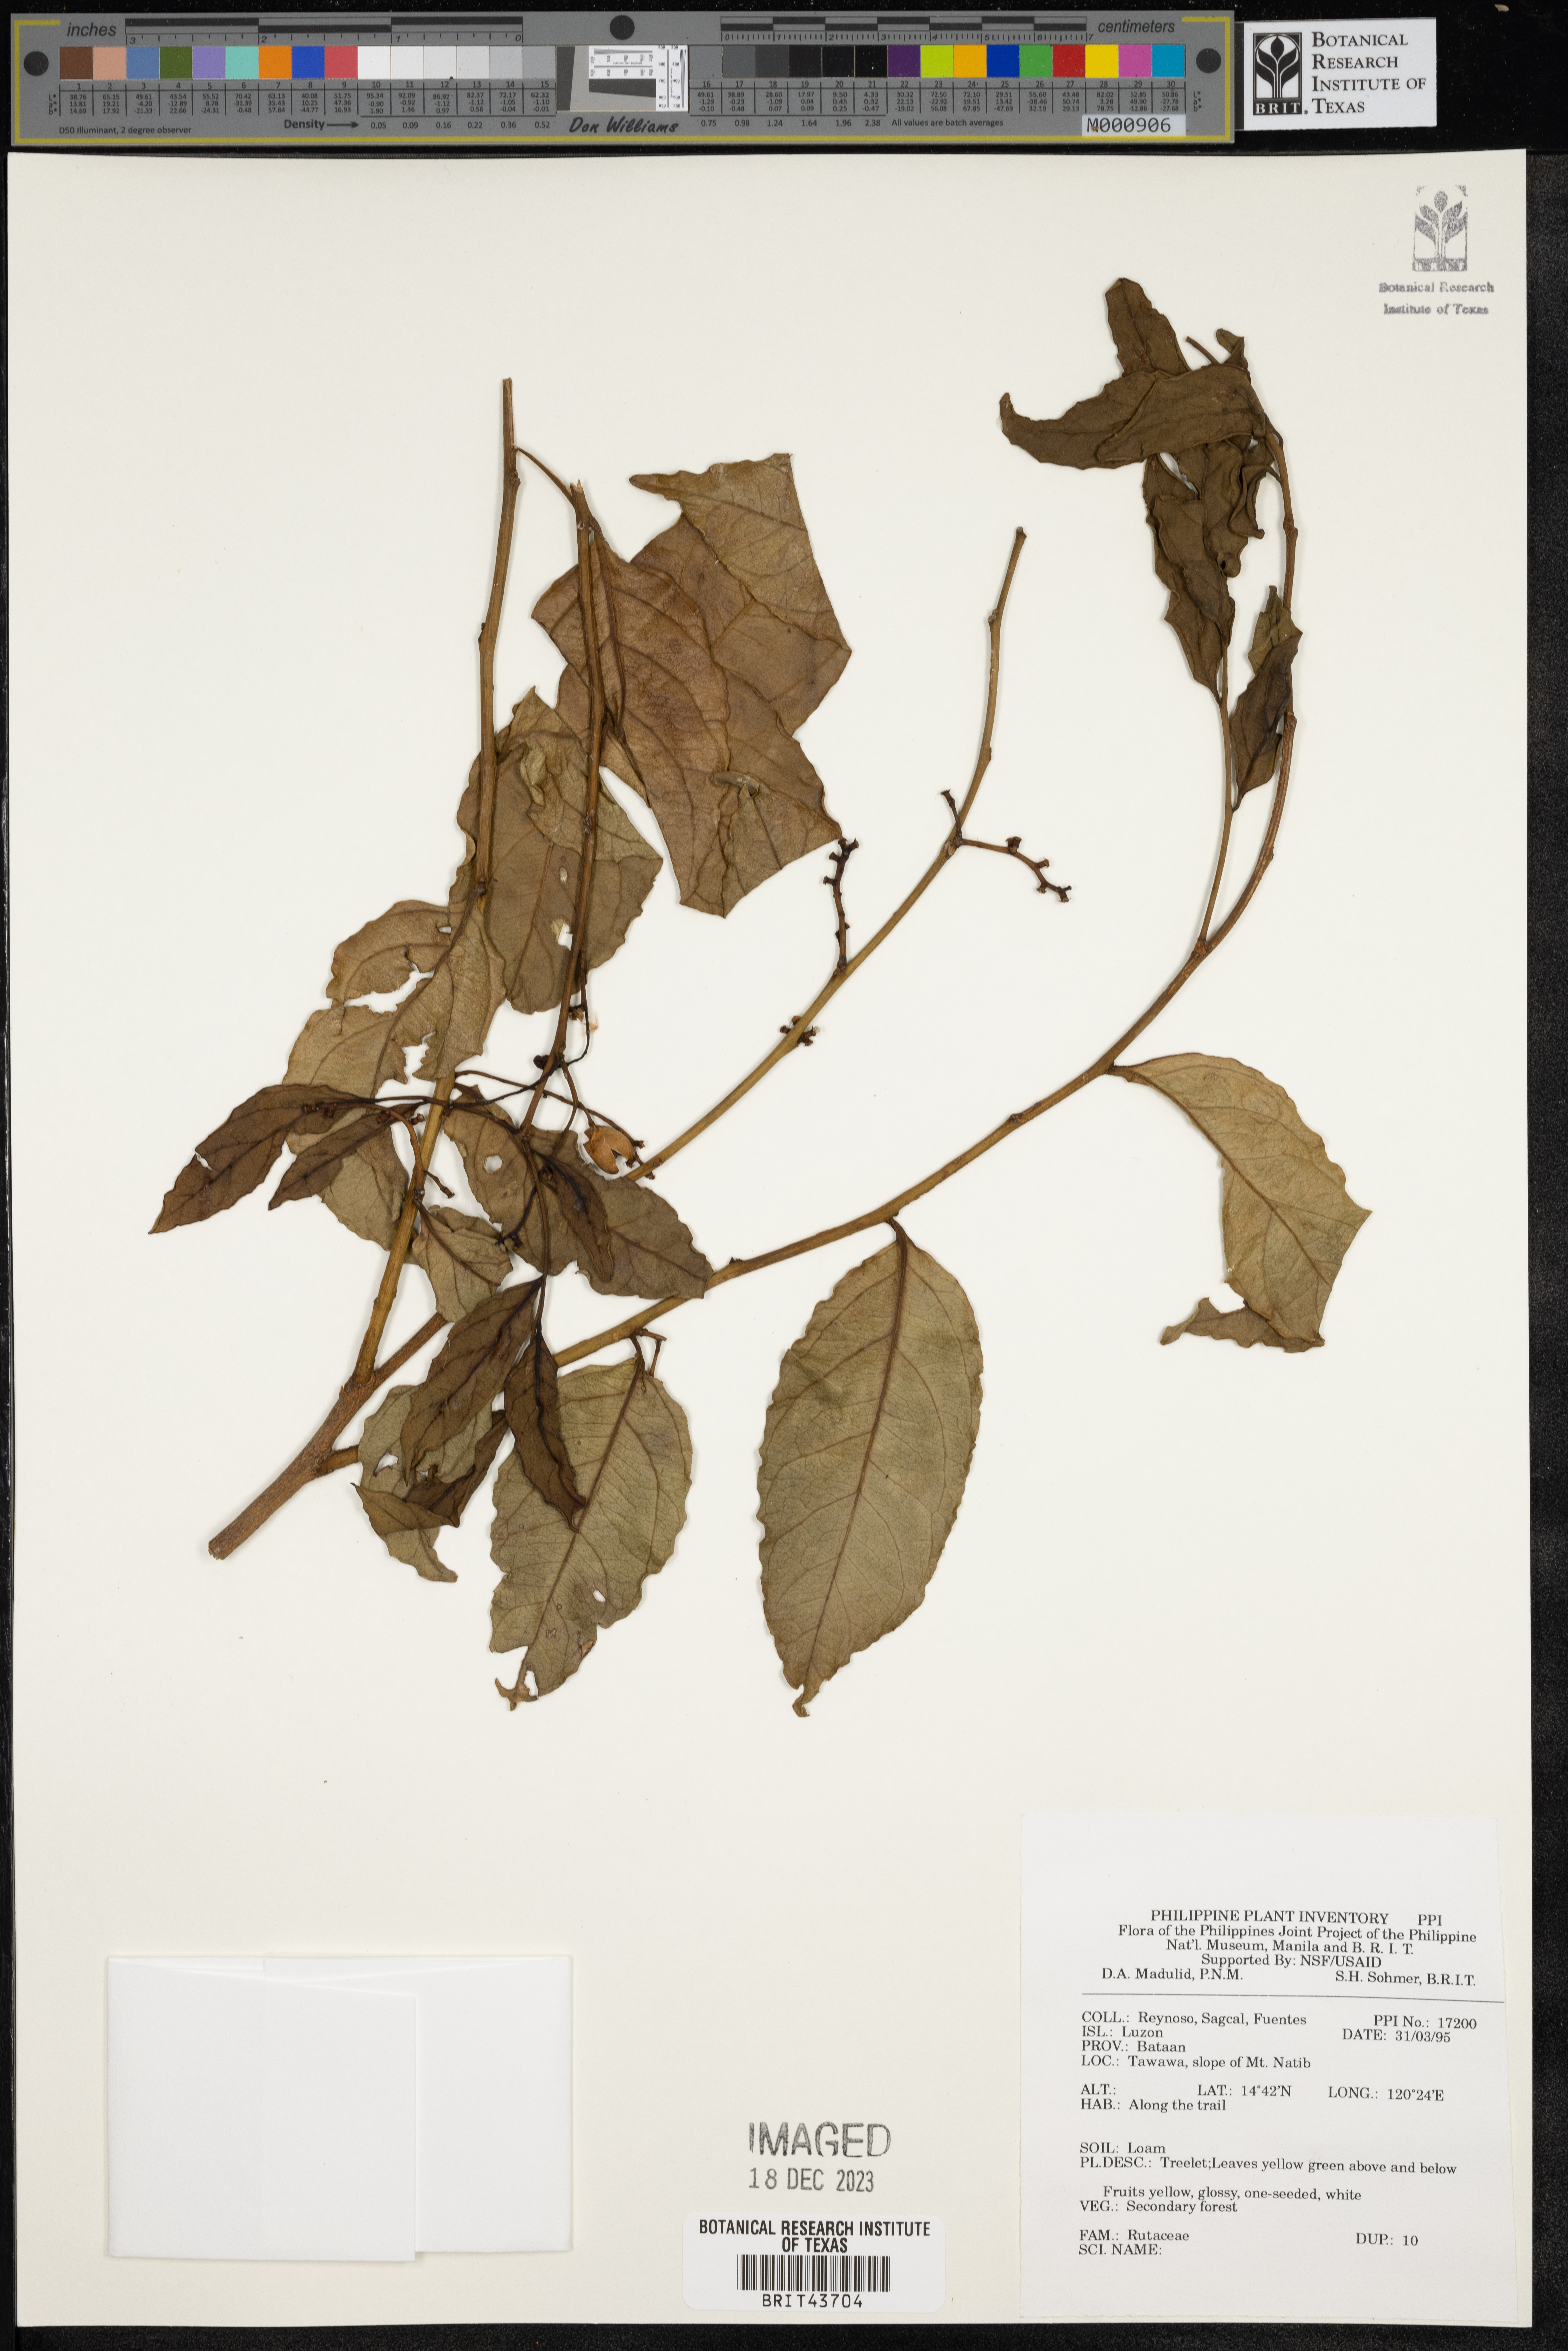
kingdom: Plantae
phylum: Tracheophyta
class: Magnoliopsida
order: Sapindales
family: Rutaceae
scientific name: Rutaceae
